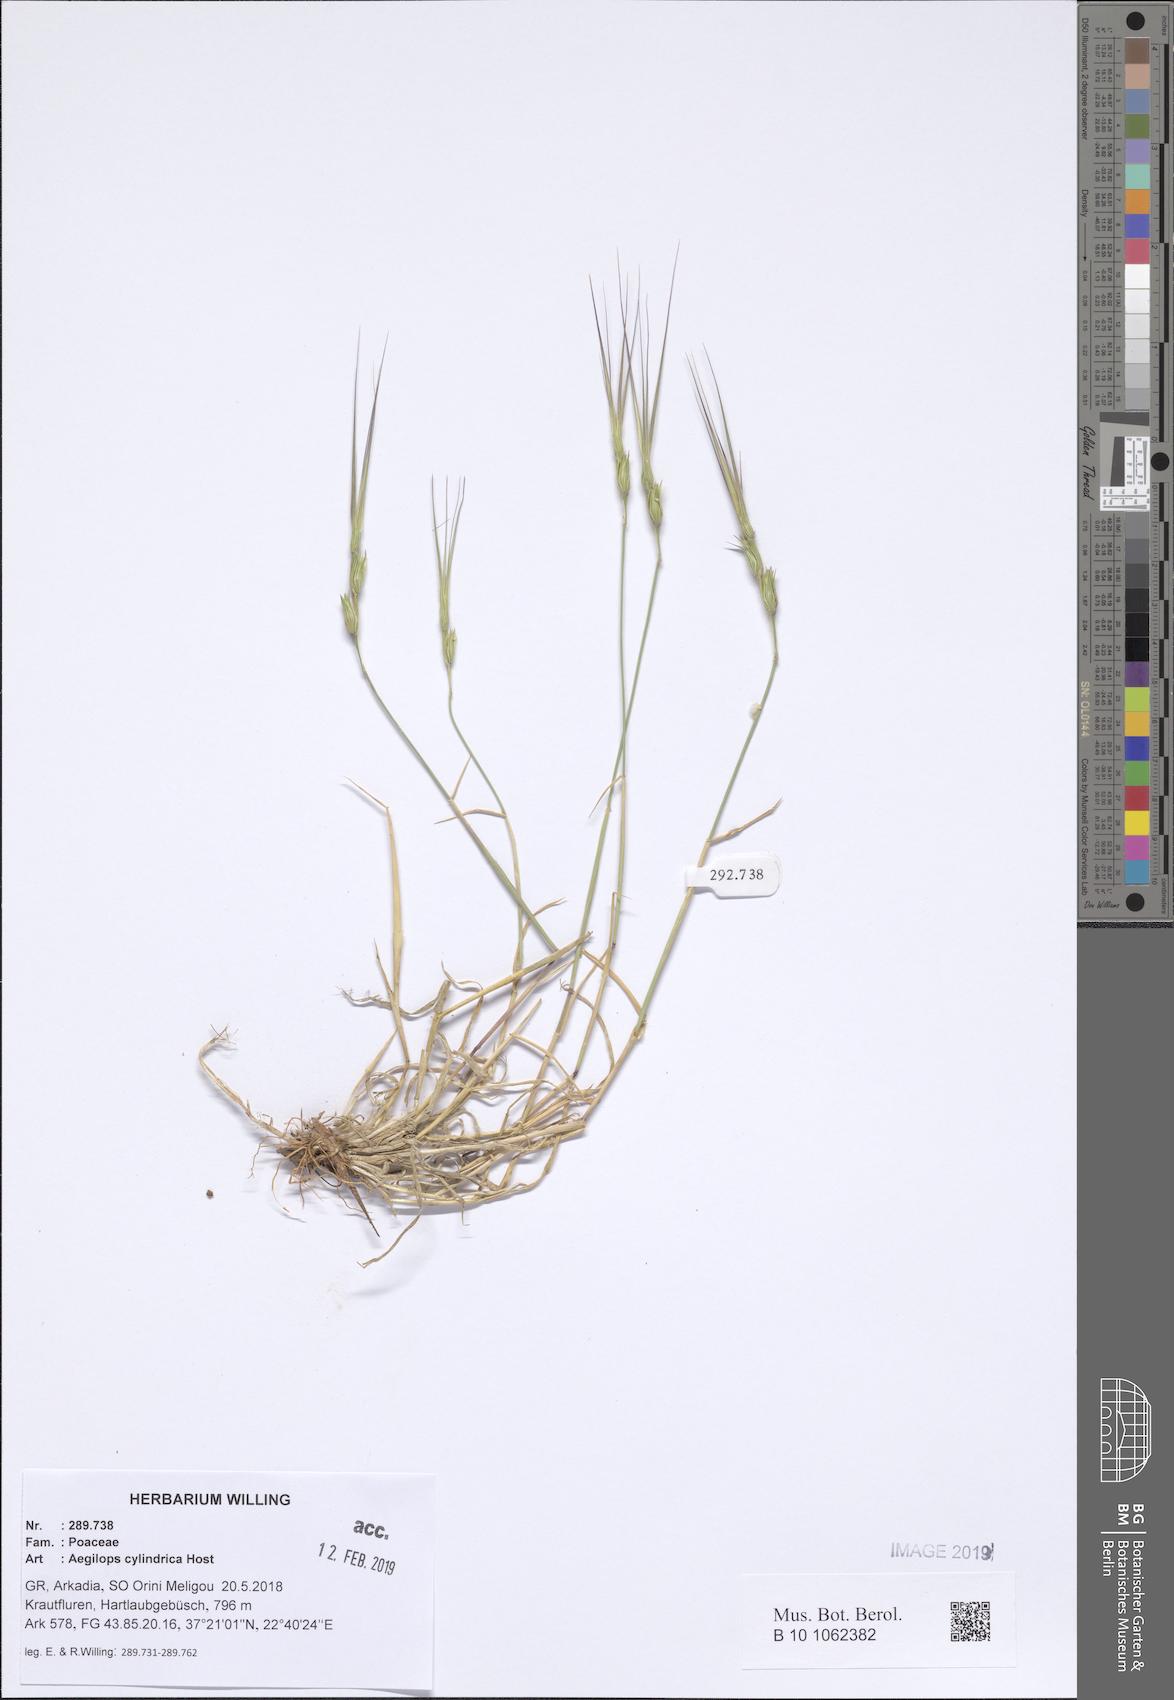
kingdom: Plantae
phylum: Tracheophyta
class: Liliopsida
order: Poales
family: Poaceae
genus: Aegilops
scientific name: Aegilops cylindrica
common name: Jointed goatgrass
